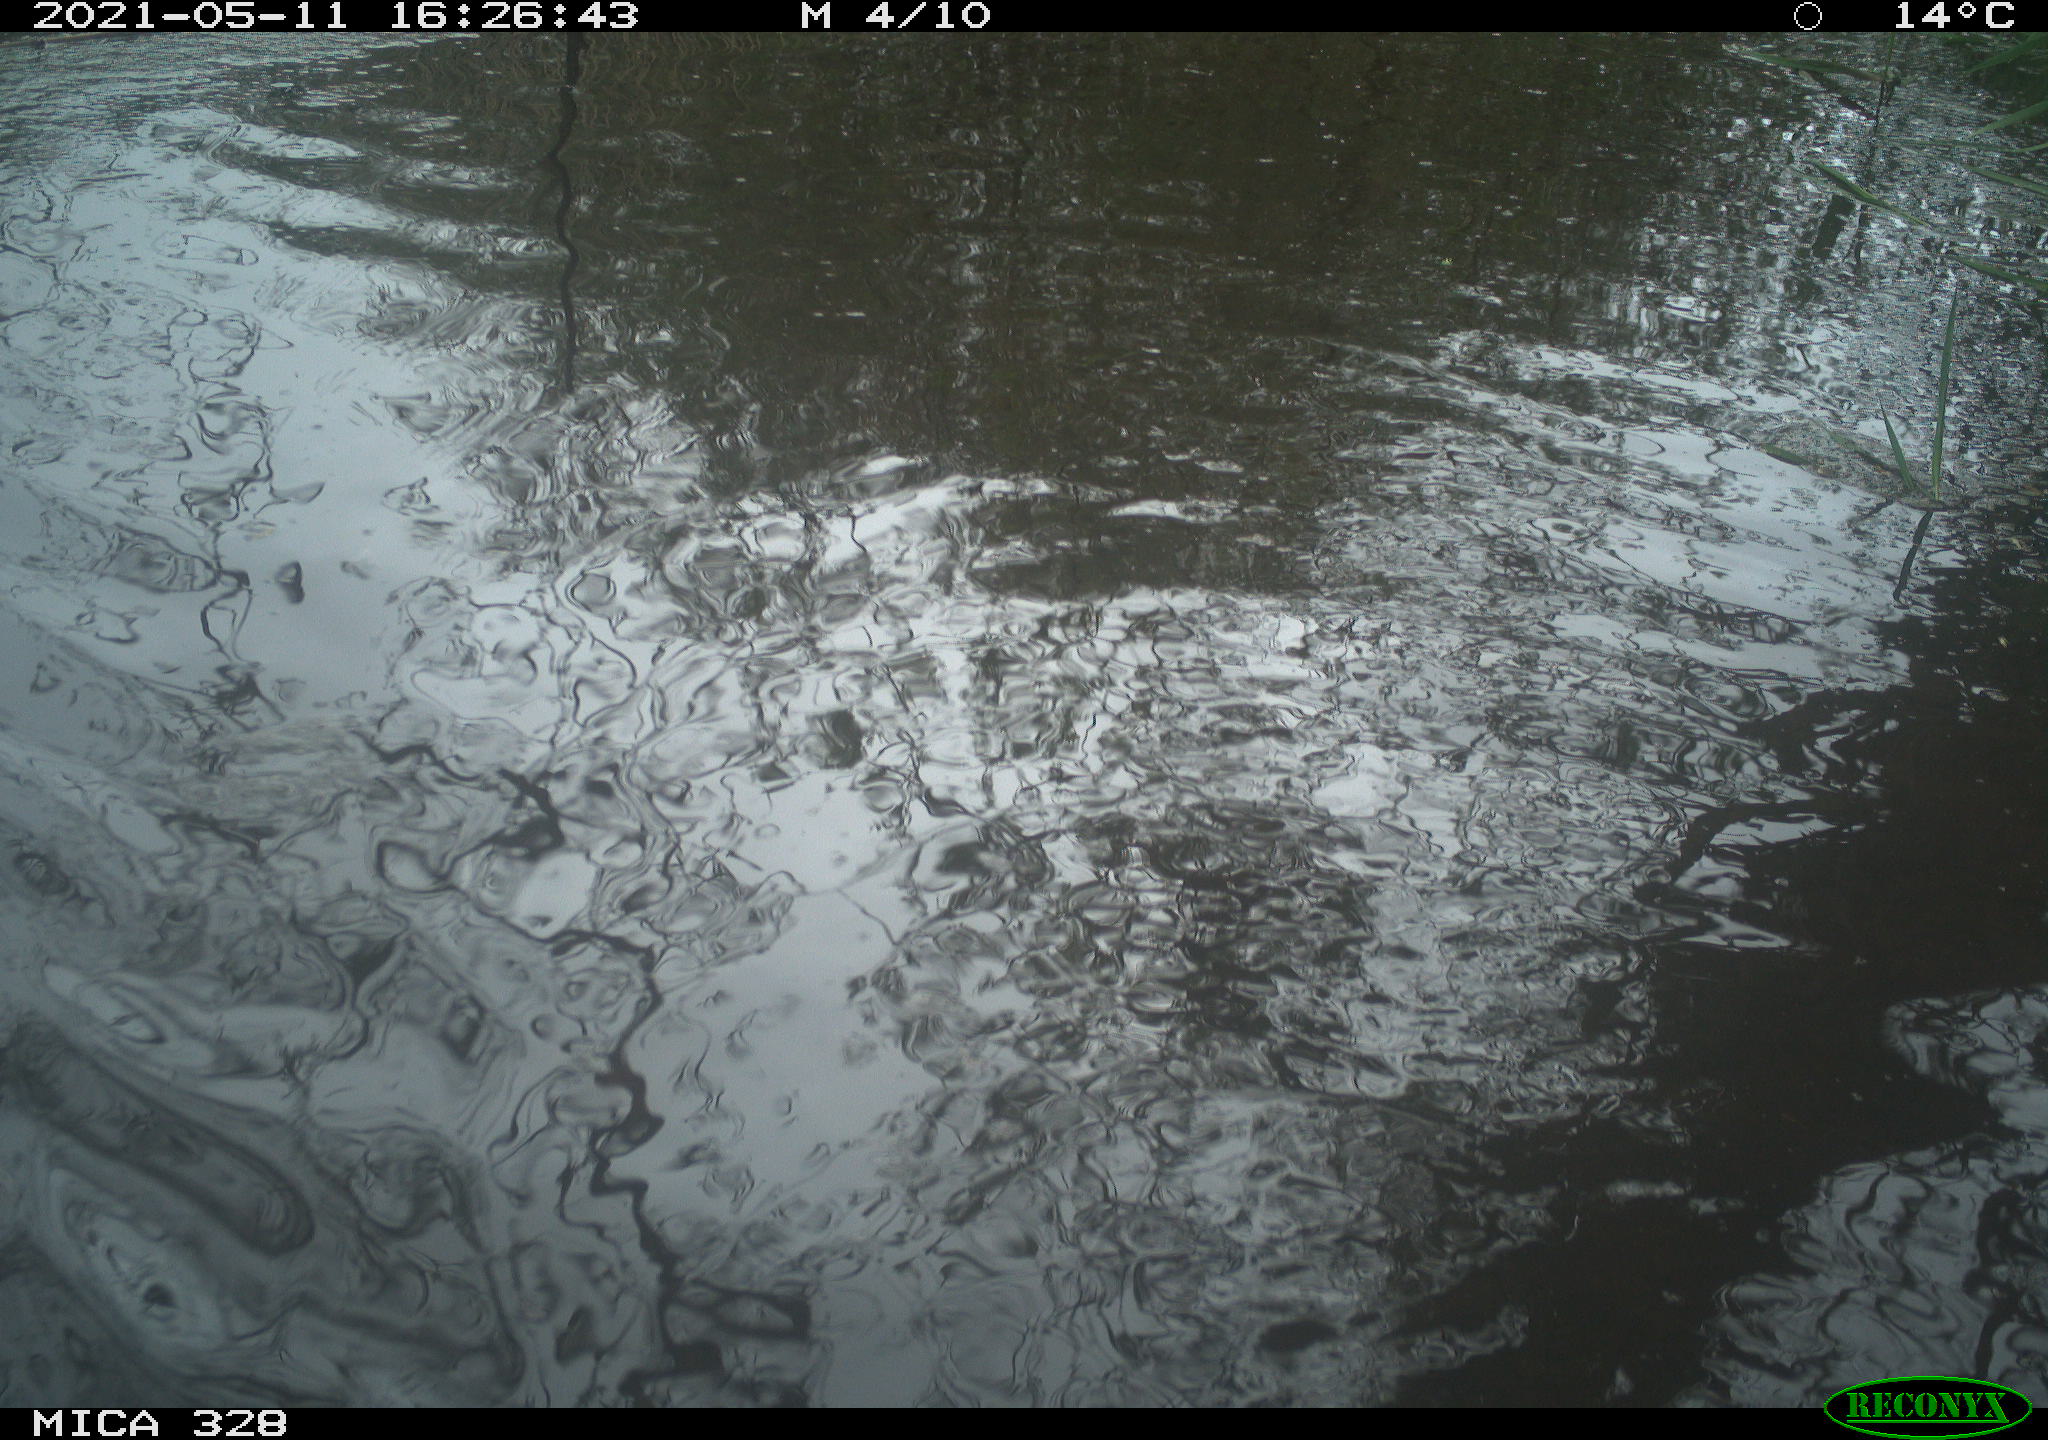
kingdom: Animalia
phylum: Chordata
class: Mammalia
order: Rodentia
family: Cricetidae
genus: Ondatra
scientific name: Ondatra zibethicus
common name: Muskrat
